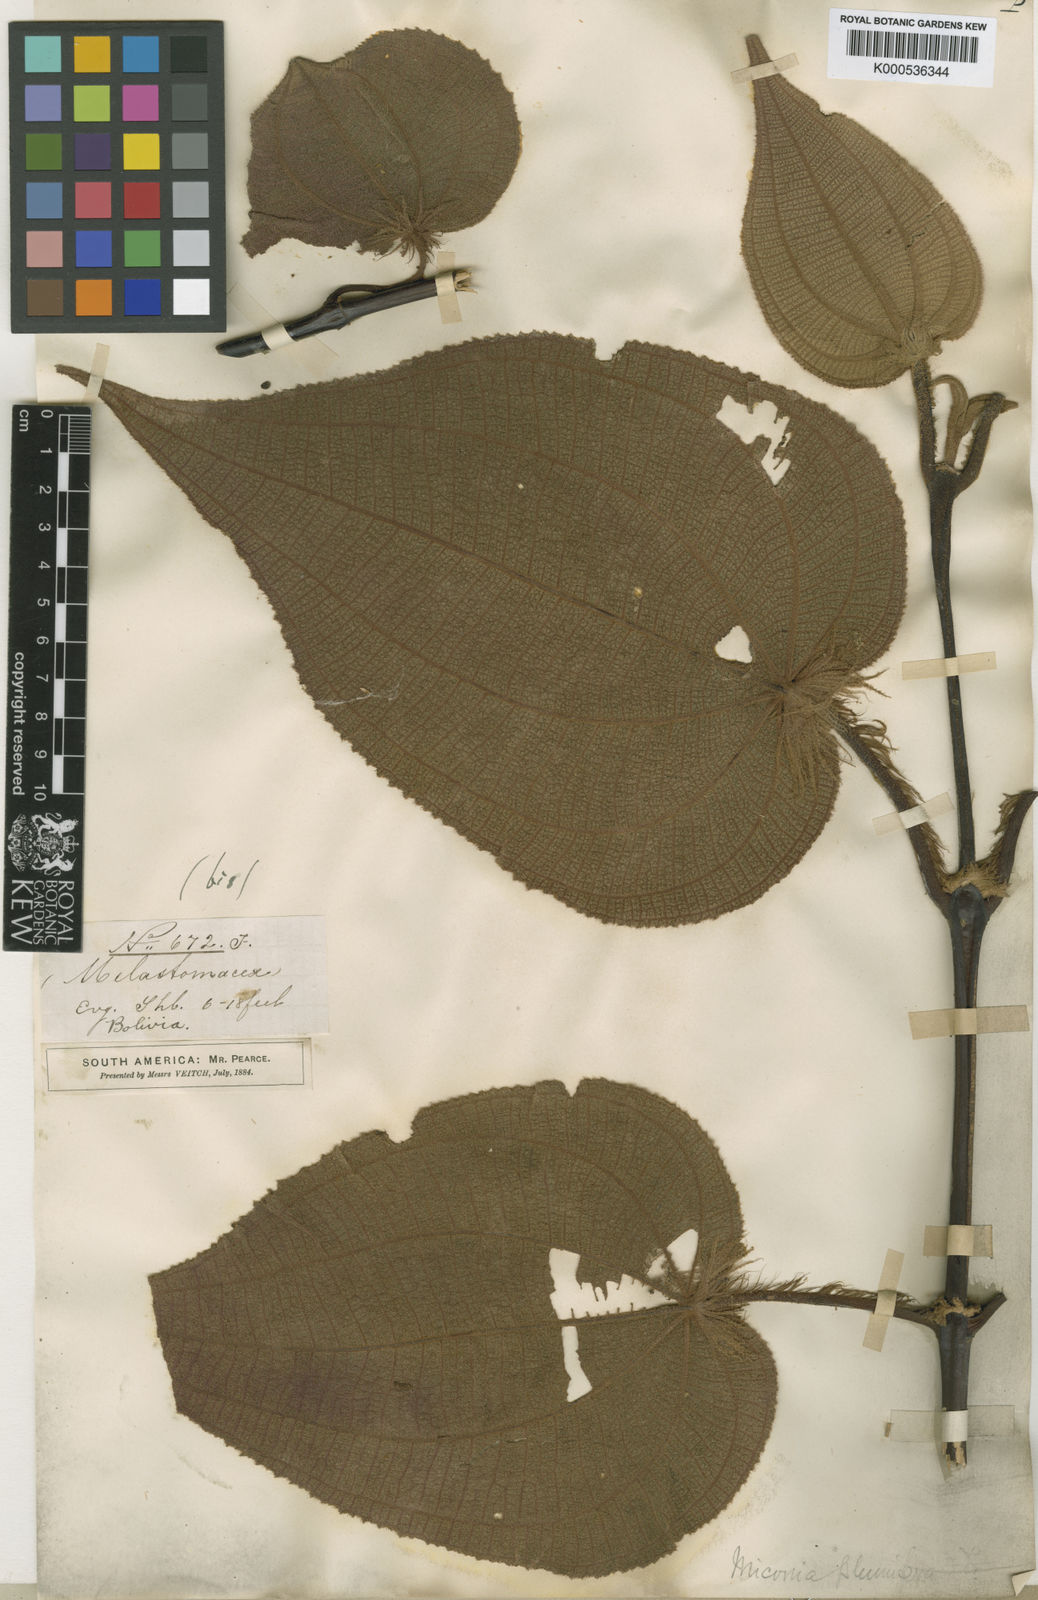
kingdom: Plantae
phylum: Tracheophyta
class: Magnoliopsida
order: Myrtales
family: Melastomataceae
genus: Miconia
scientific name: Miconia plumifera
